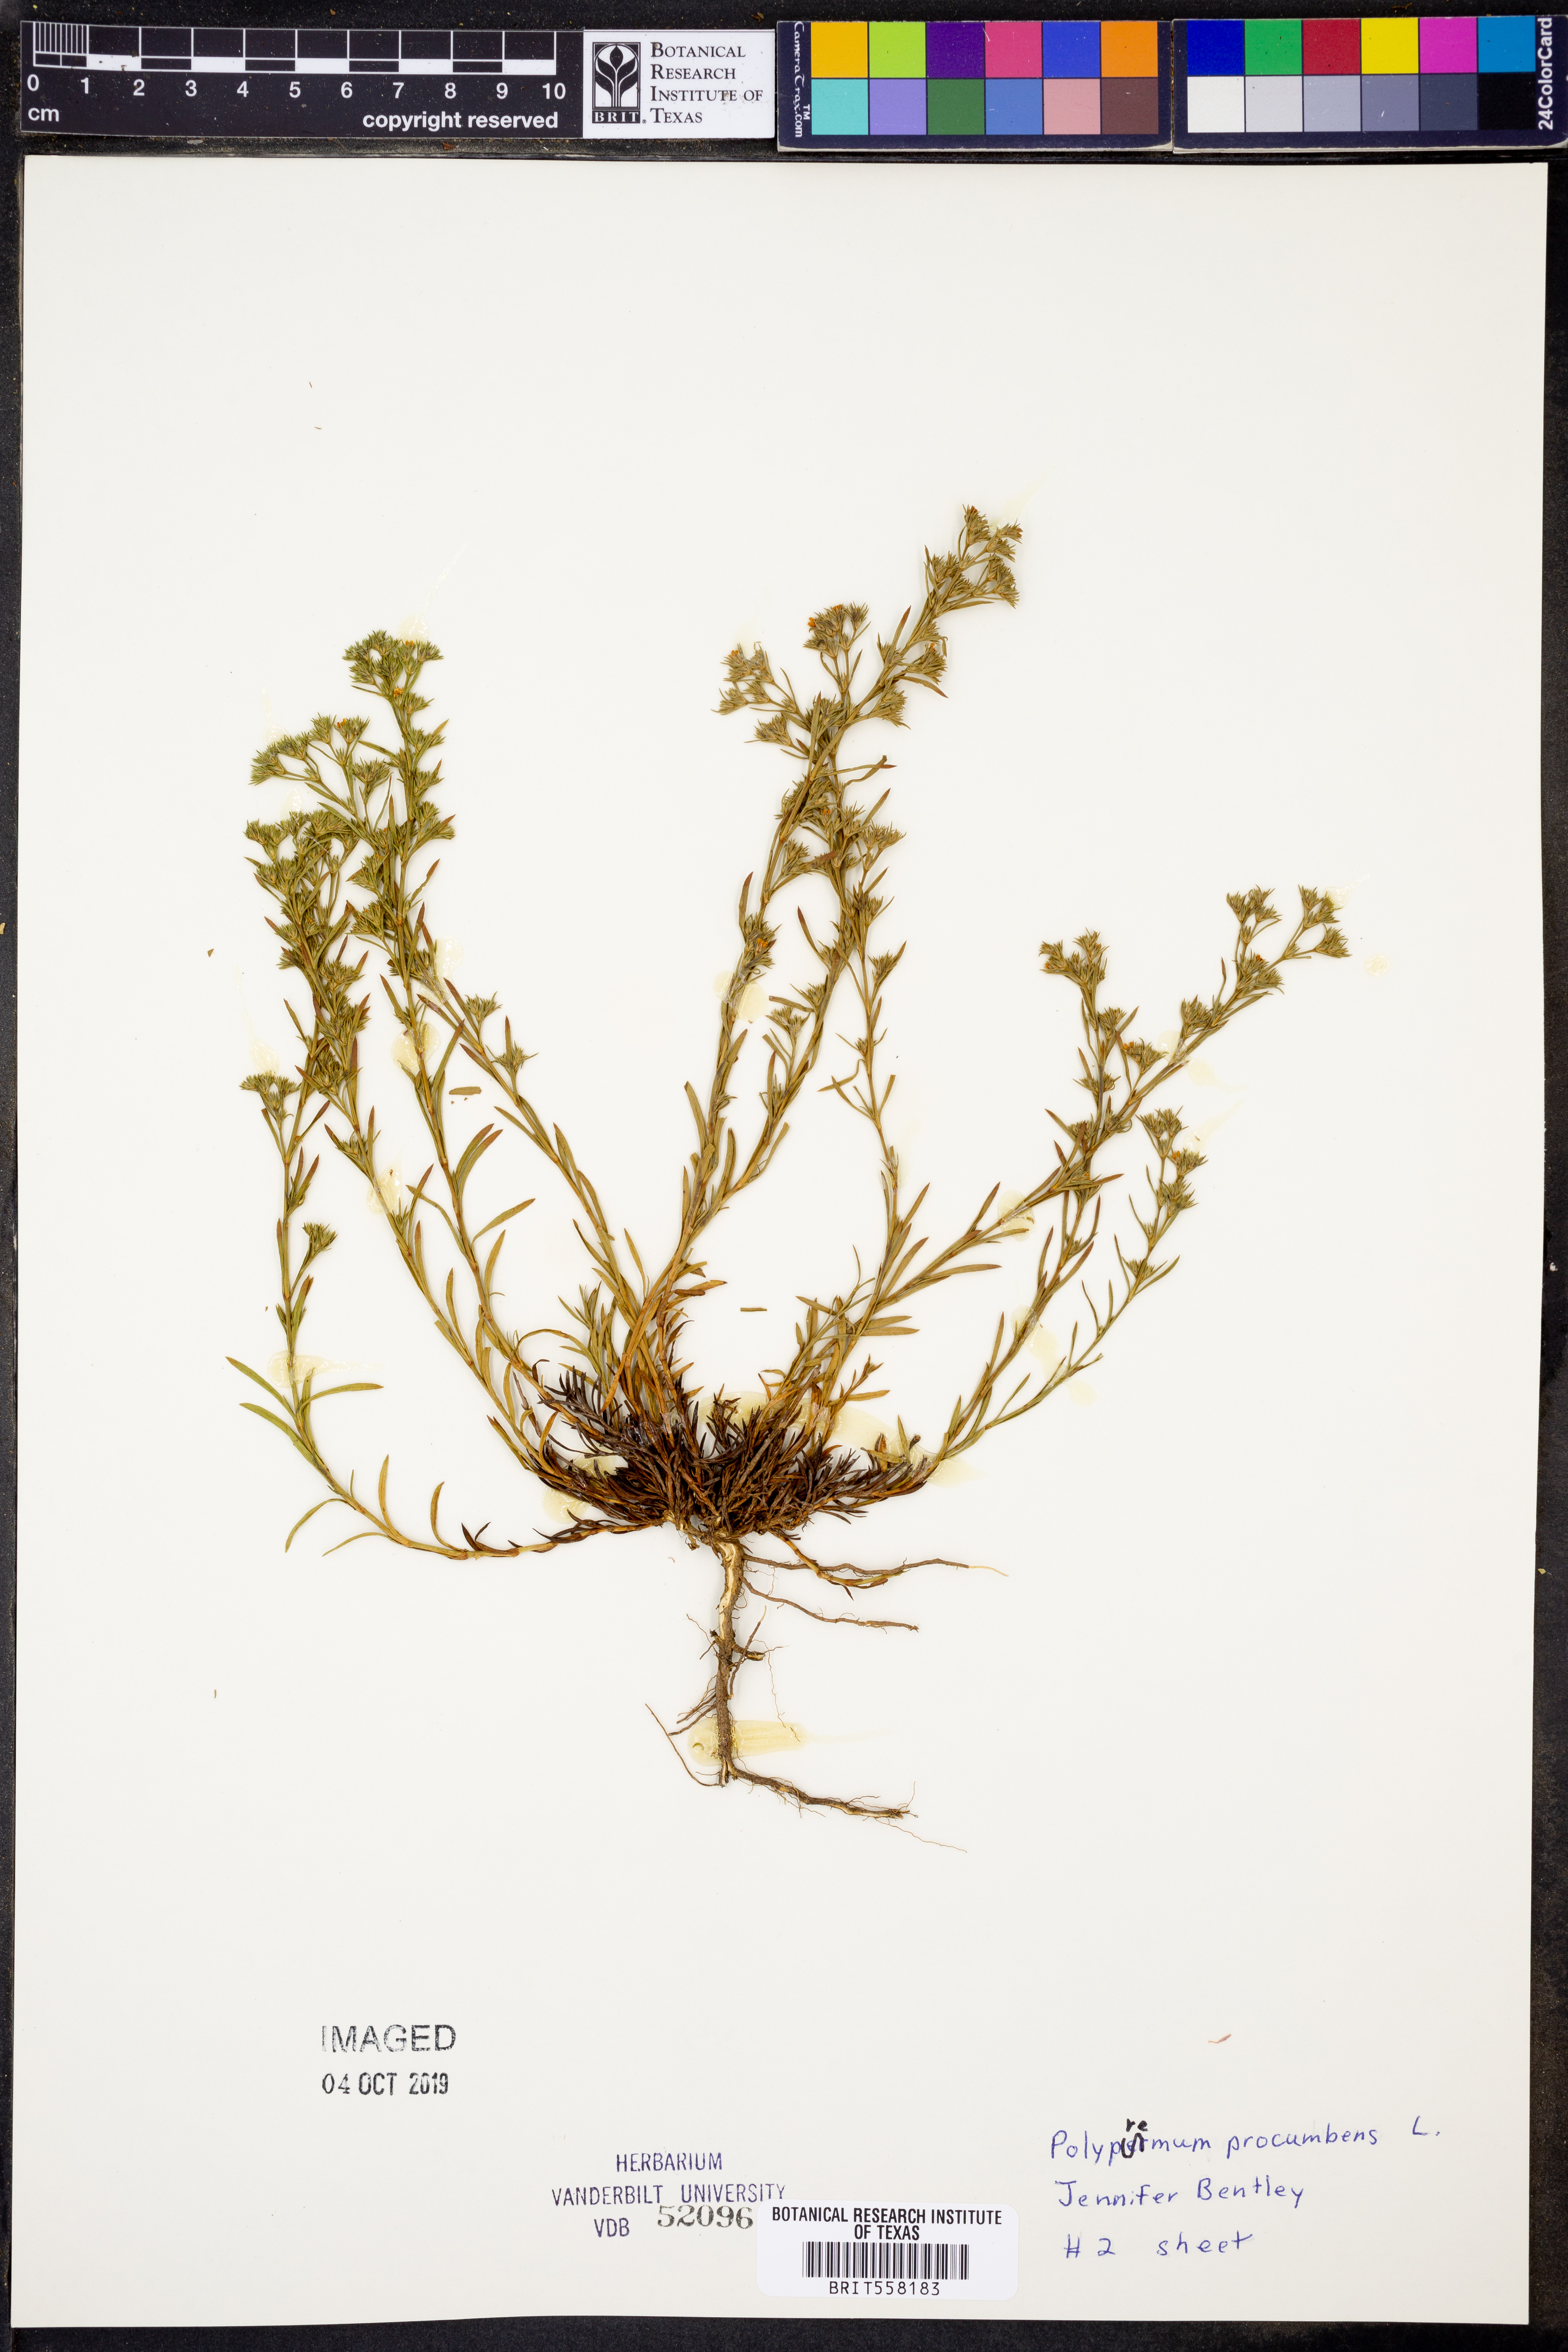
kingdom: Plantae
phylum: Tracheophyta
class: Magnoliopsida
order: Lamiales
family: Tetrachondraceae
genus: Polypremum
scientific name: Polypremum procumbens
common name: Juniper-leaf
